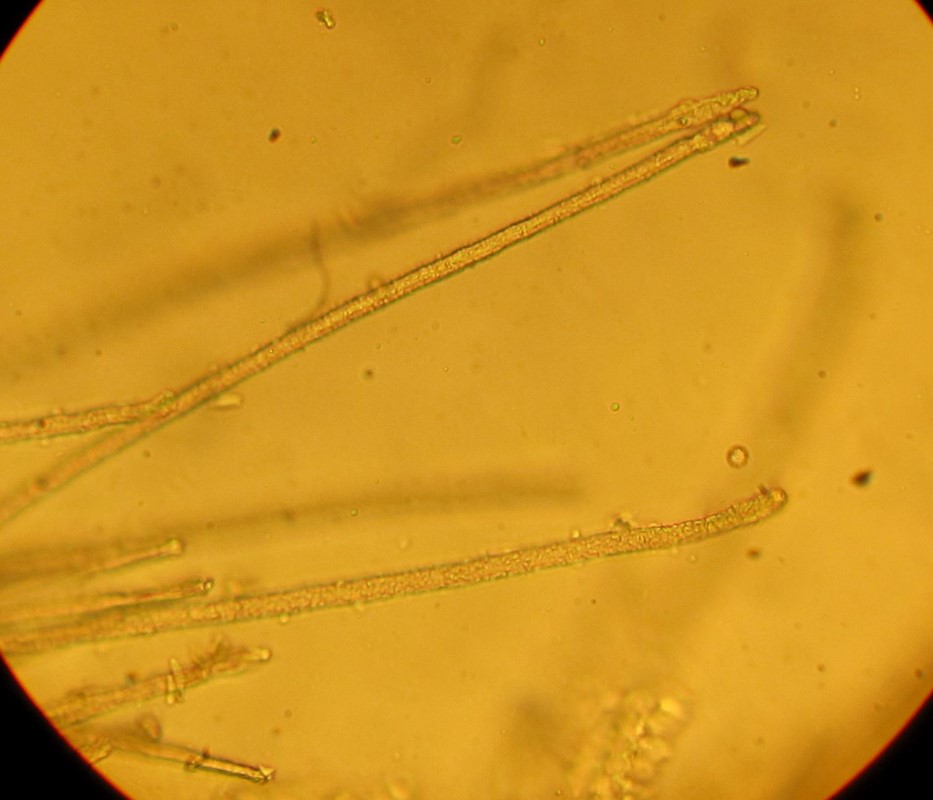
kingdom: Fungi
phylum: Basidiomycota
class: Agaricomycetes
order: Agaricales
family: Niaceae
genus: Flagelloscypha
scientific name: Flagelloscypha niveola
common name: pjusket hængeskål
